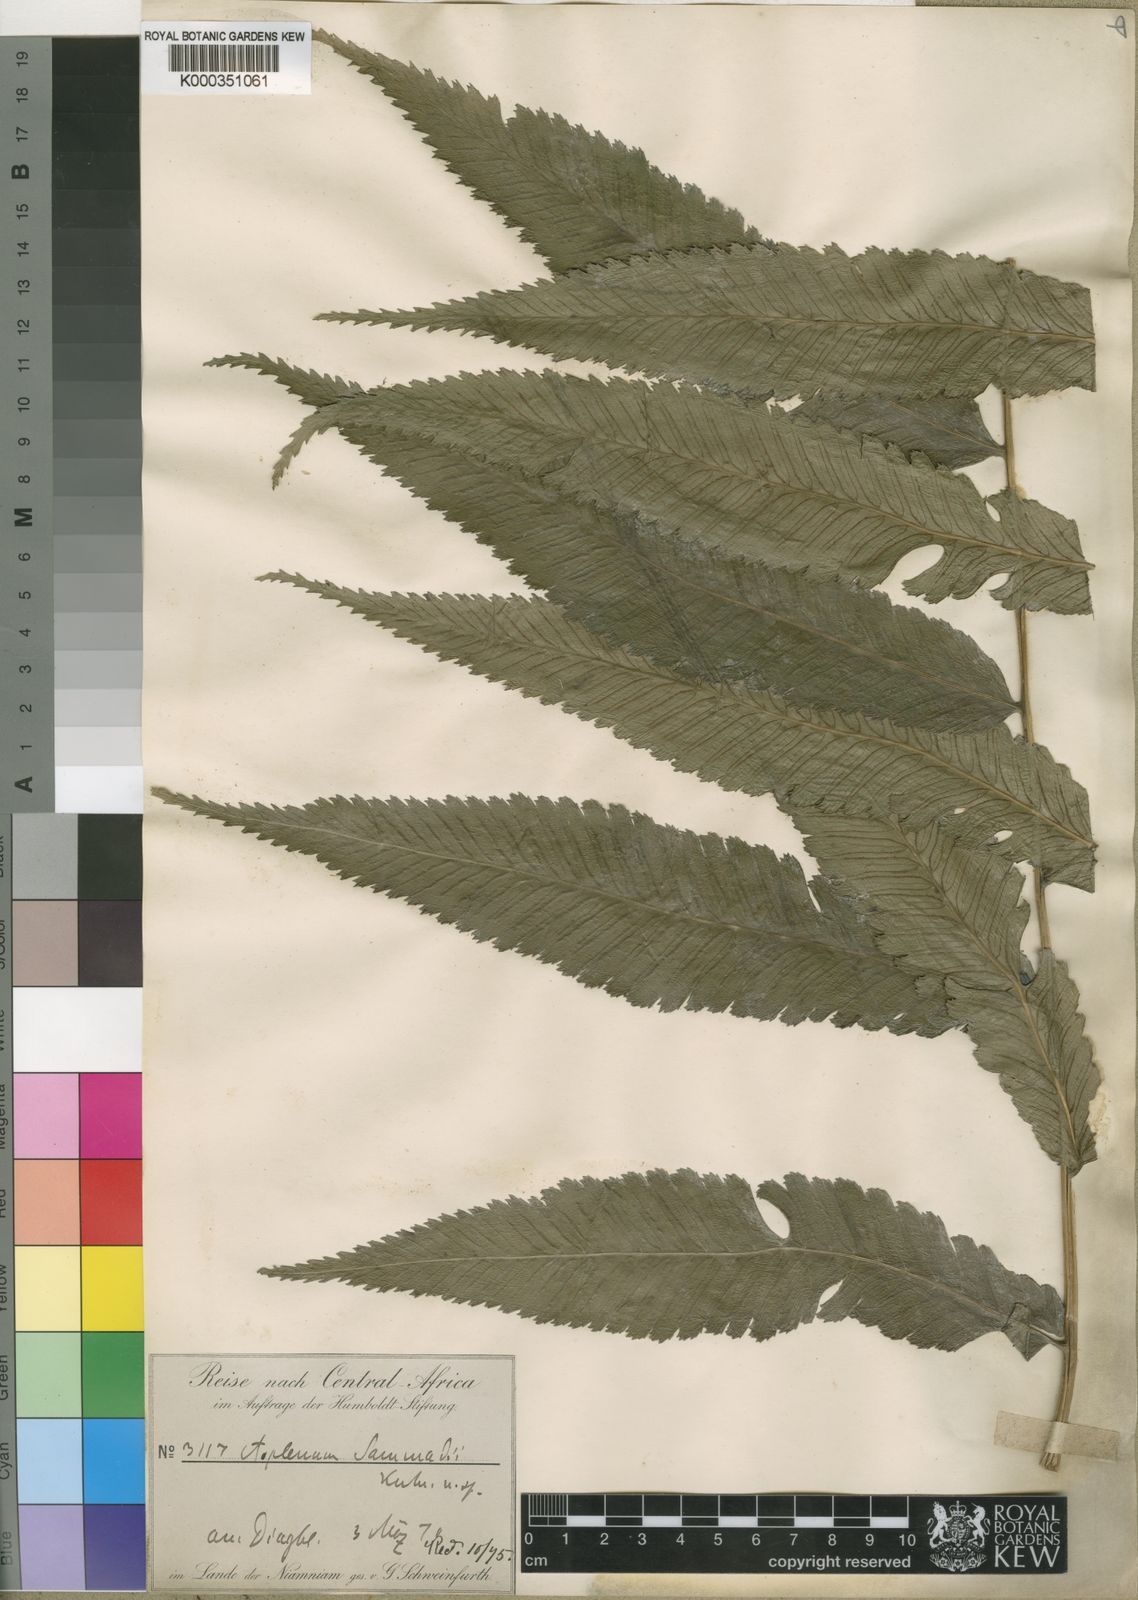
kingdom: Plantae
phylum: Tracheophyta
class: Polypodiopsida
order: Polypodiales
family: Athyriaceae
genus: Diplazium
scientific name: Diplazium sammatii
